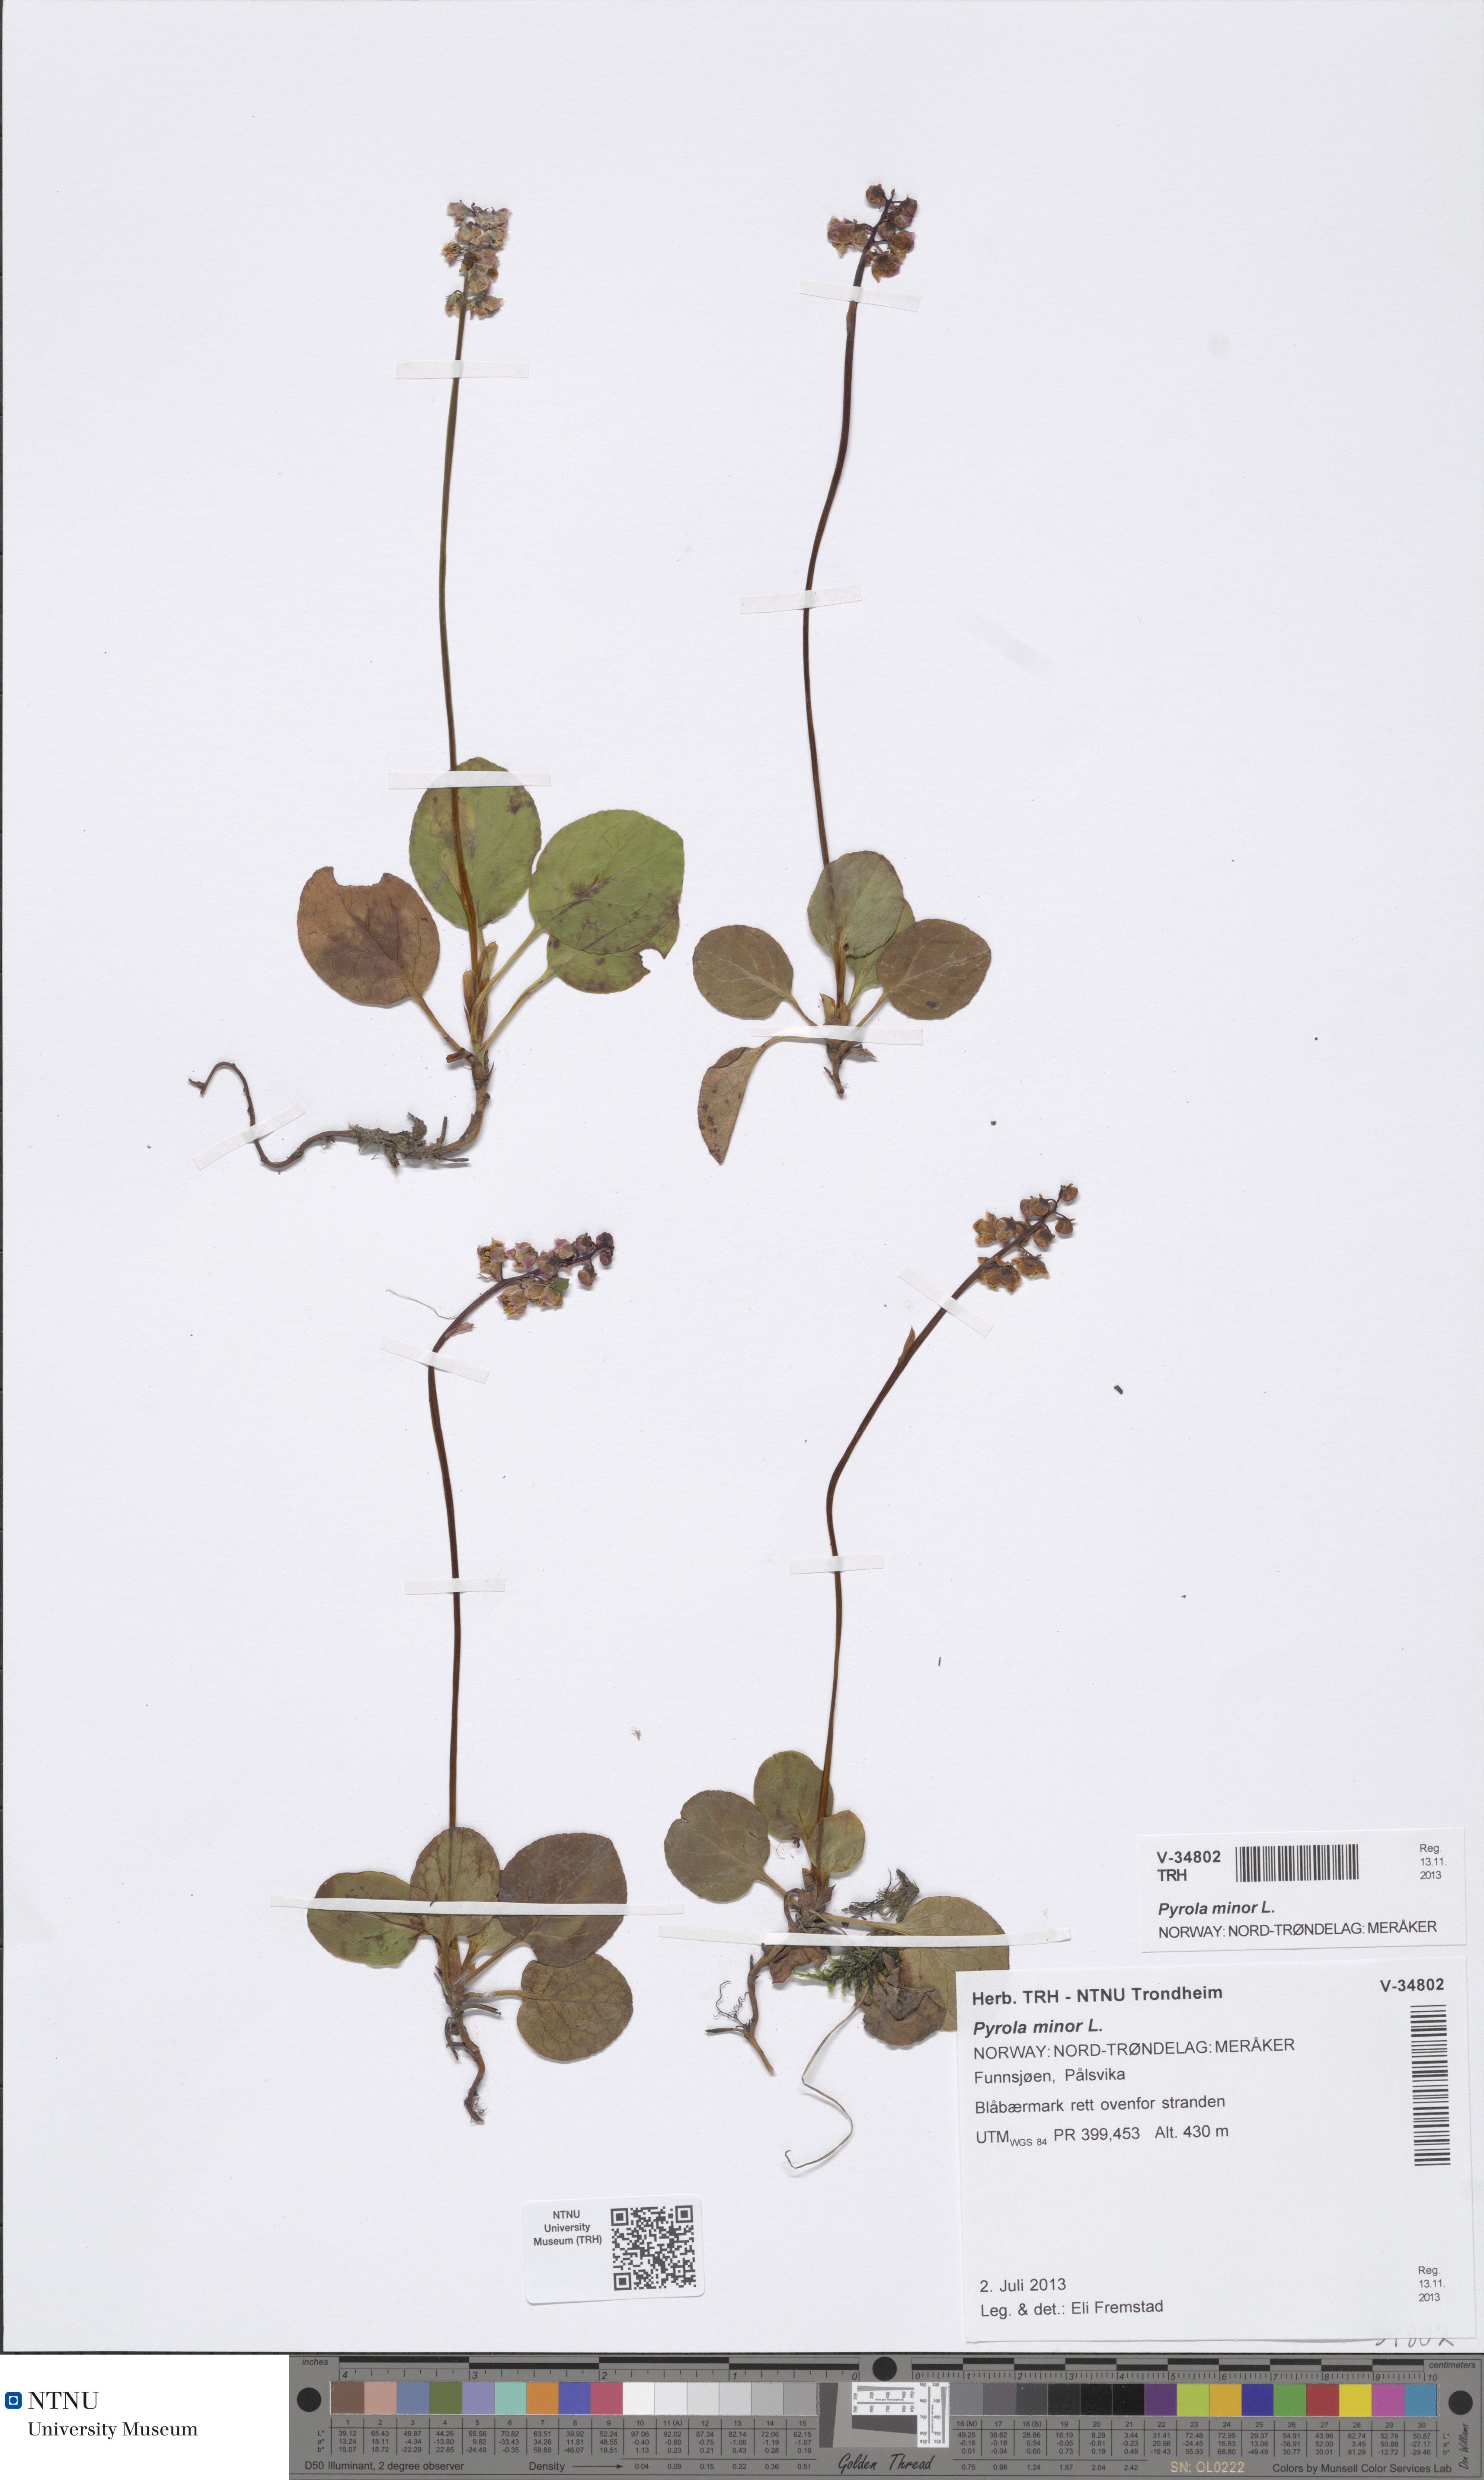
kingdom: Plantae
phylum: Tracheophyta
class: Magnoliopsida
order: Ericales
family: Ericaceae
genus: Pyrola
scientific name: Pyrola minor
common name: Common wintergreen
